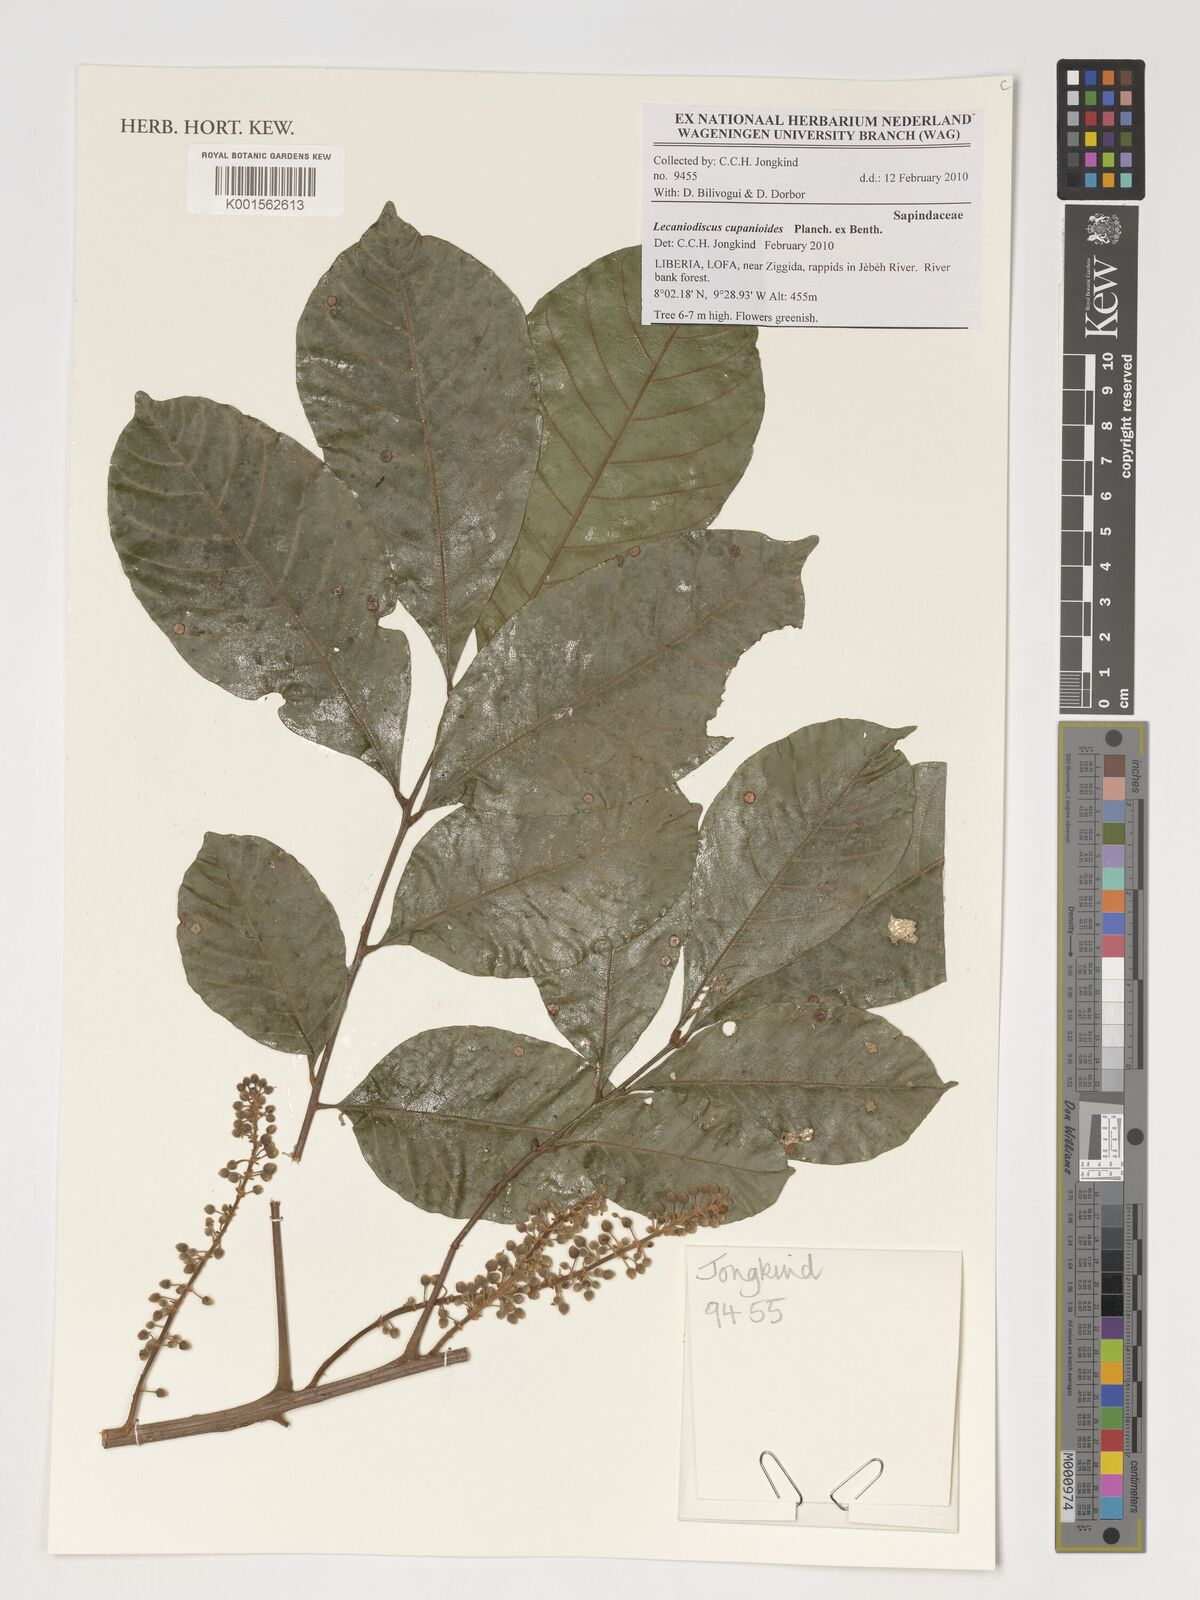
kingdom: Plantae
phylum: Tracheophyta
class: Magnoliopsida
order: Sapindales
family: Sapindaceae
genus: Lecaniodiscus
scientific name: Lecaniodiscus cupanioides
